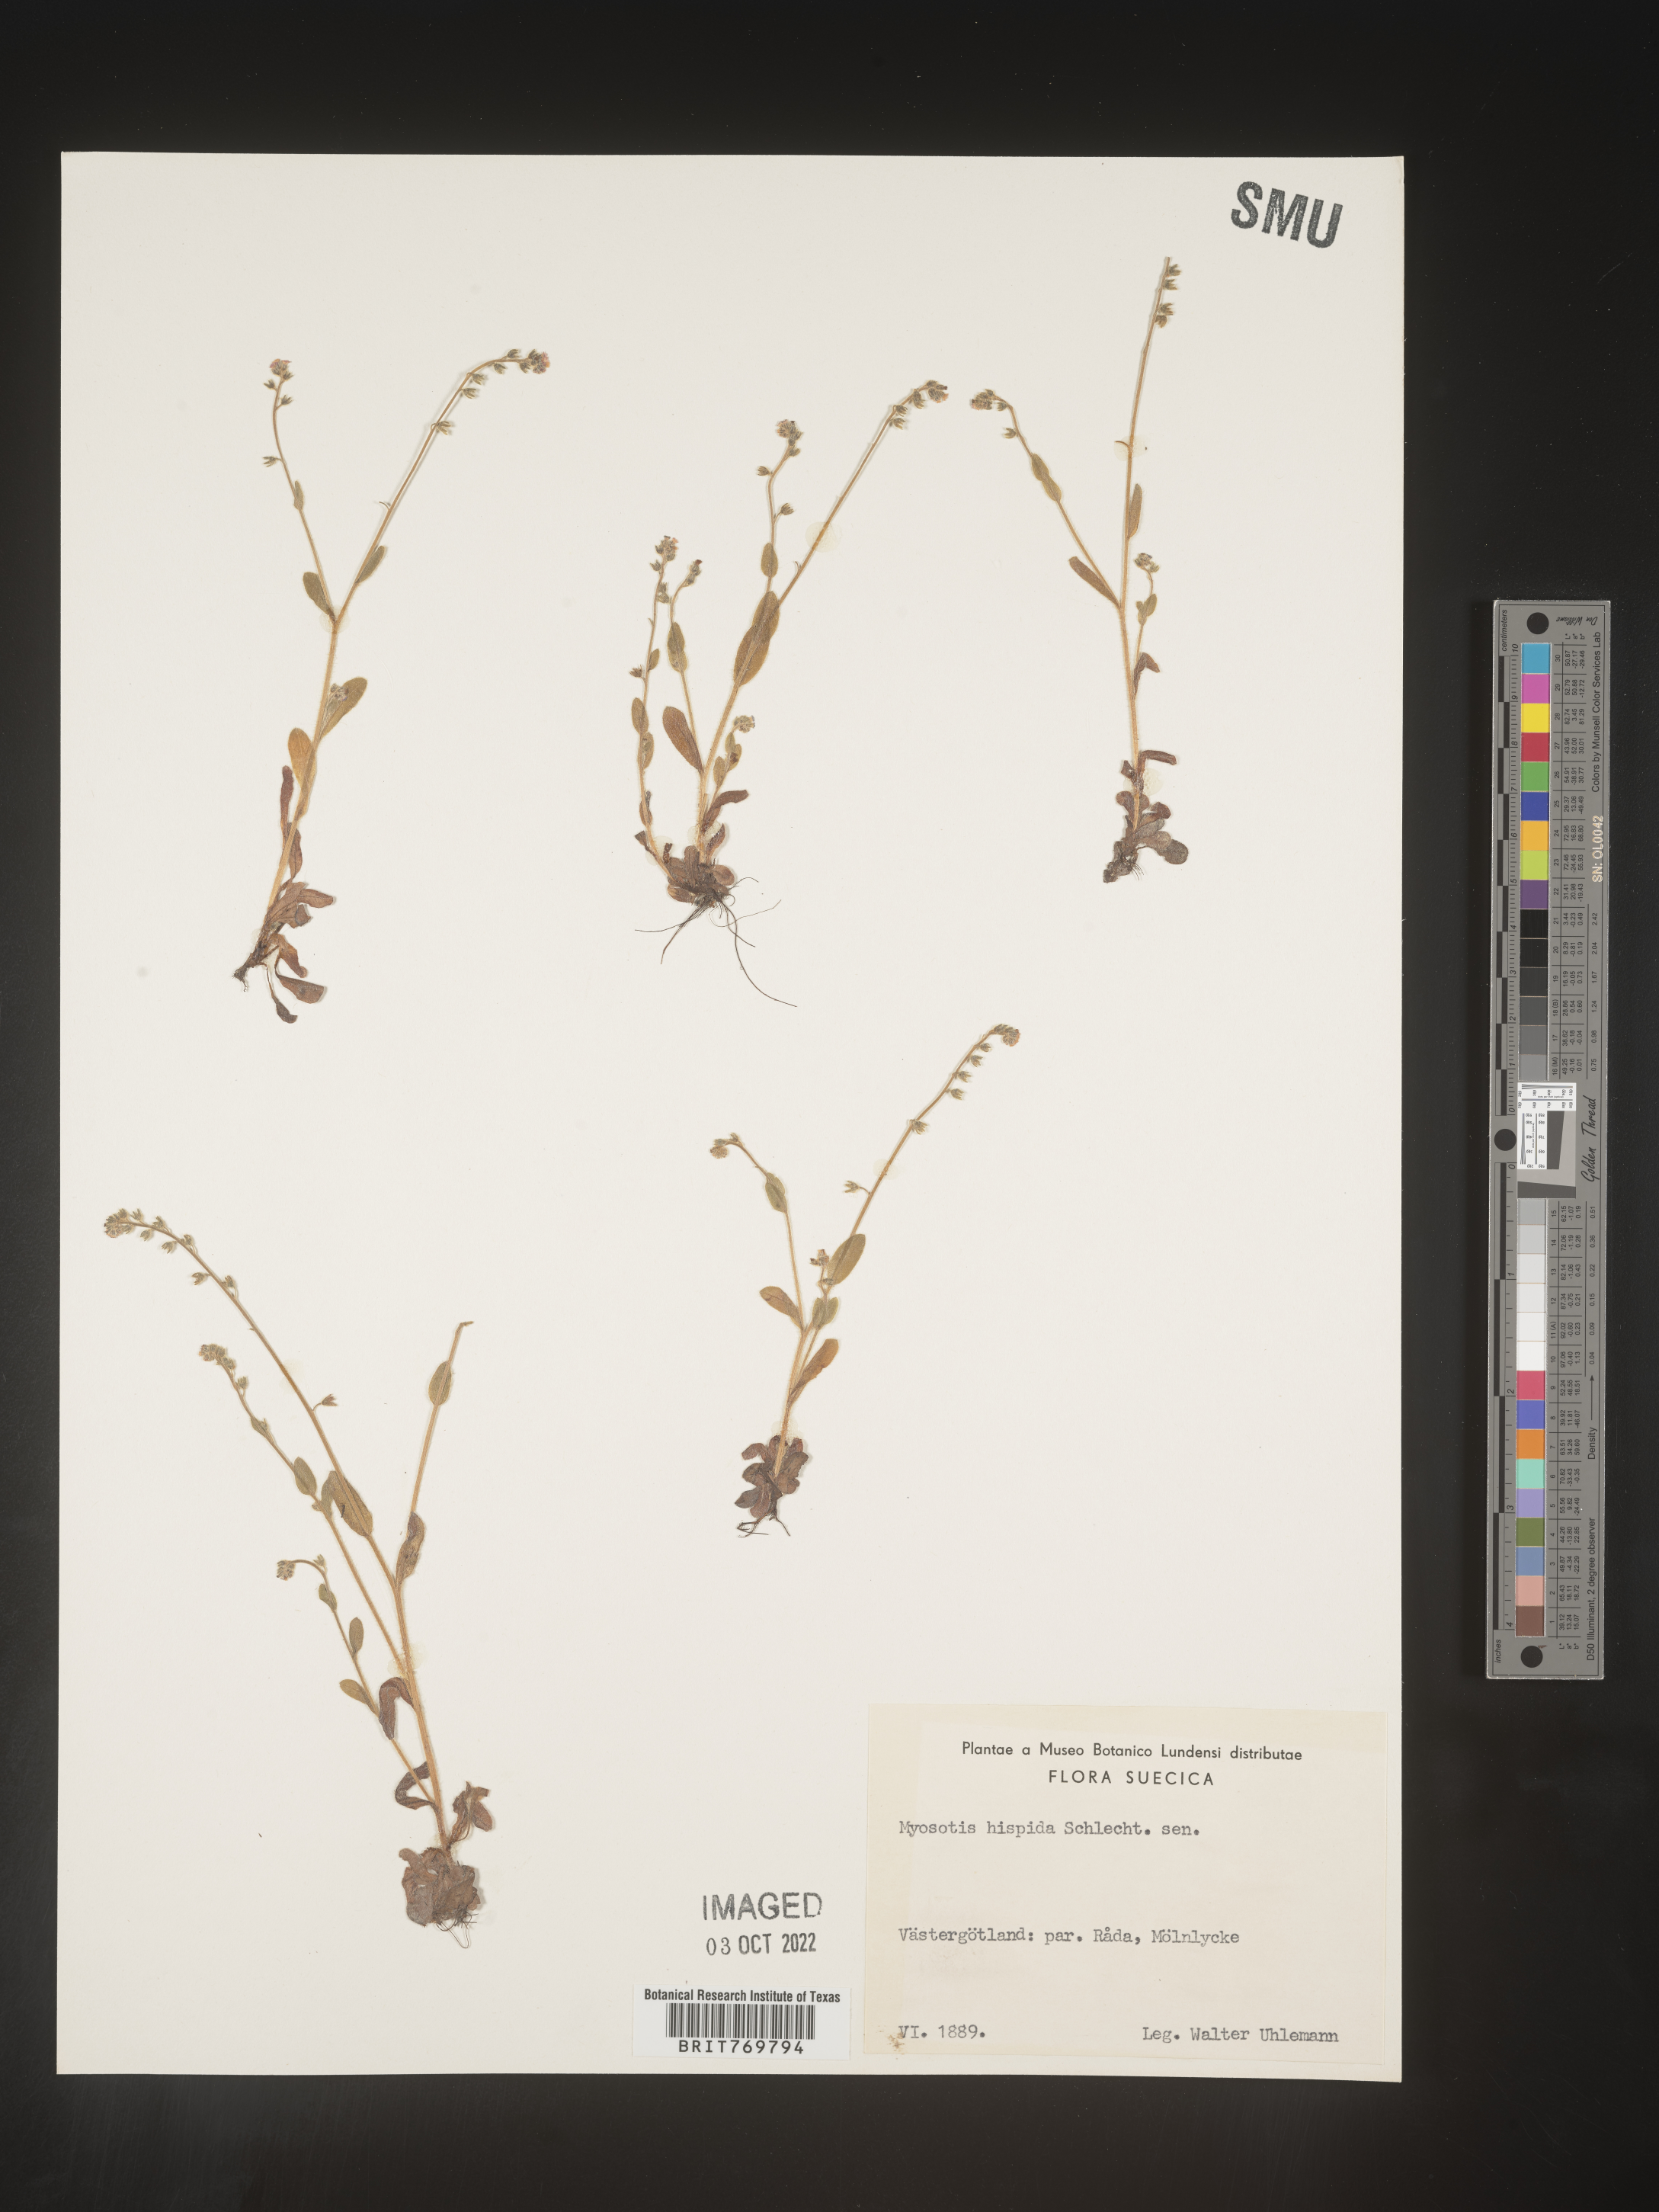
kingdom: Plantae
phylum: Tracheophyta
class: Magnoliopsida
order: Boraginales
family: Boraginaceae
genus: Myosotis
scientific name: Myosotis
